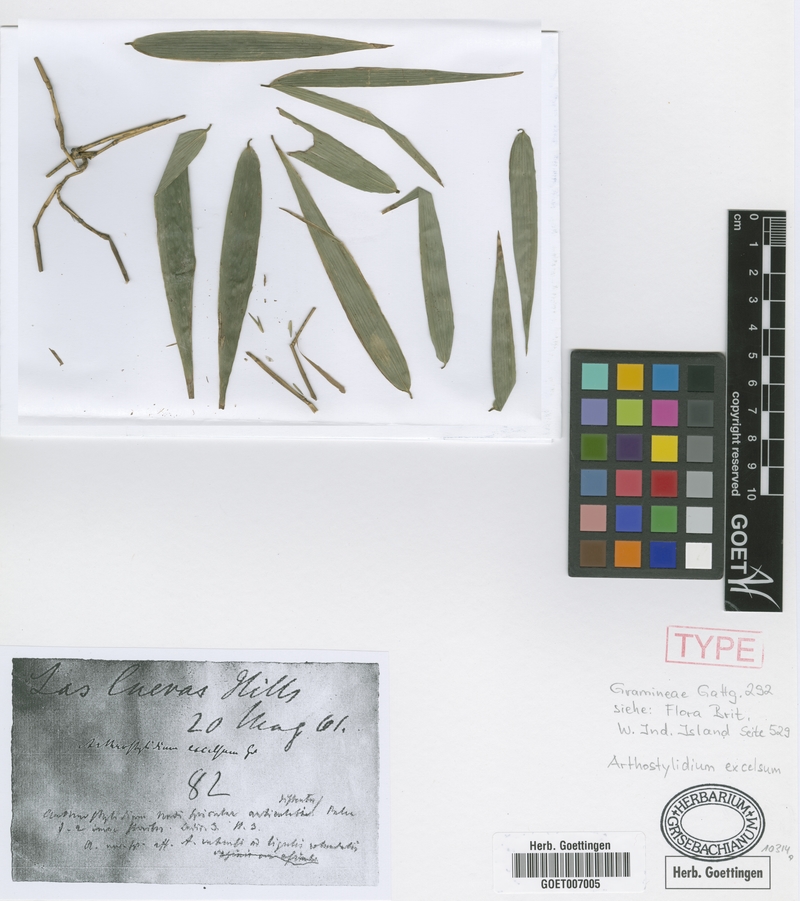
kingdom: Plantae
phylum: Tracheophyta
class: Liliopsida
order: Poales
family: Poaceae
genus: Arthrostylidium
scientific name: Arthrostylidium excelsum
